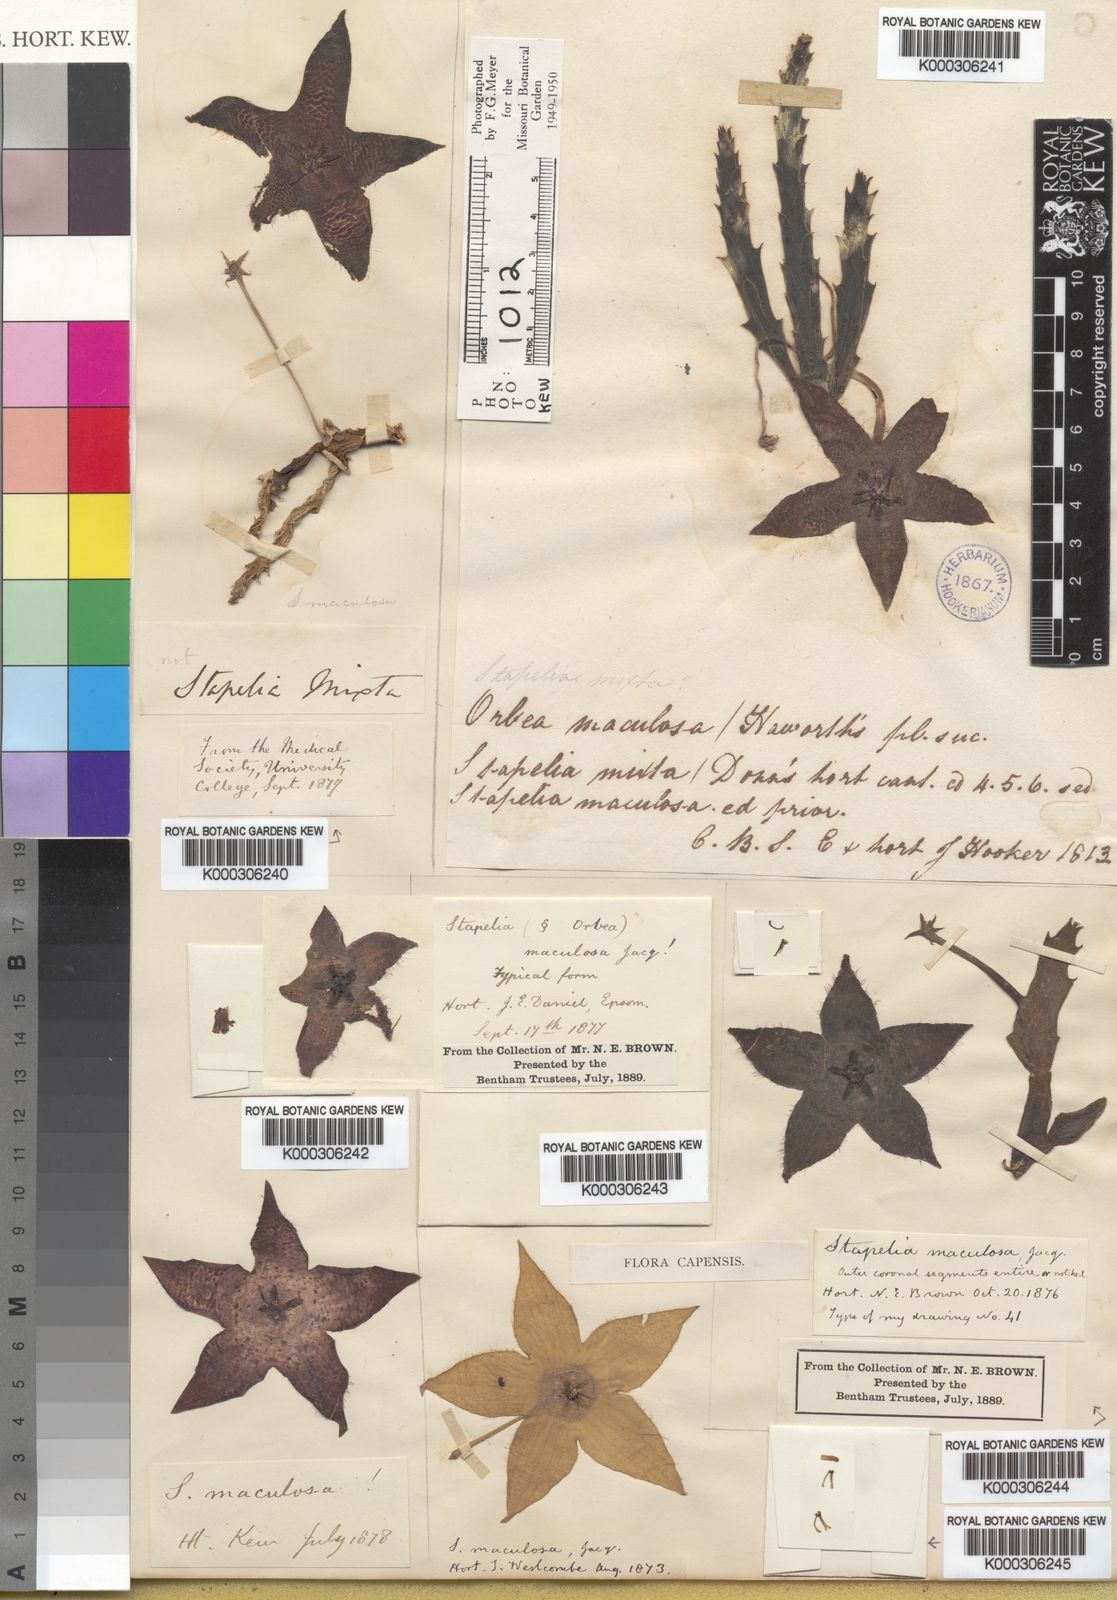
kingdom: Plantae
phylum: Tracheophyta
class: Magnoliopsida
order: Gentianales
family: Apocynaceae
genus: Ceropegia
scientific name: Ceropegia mixta
